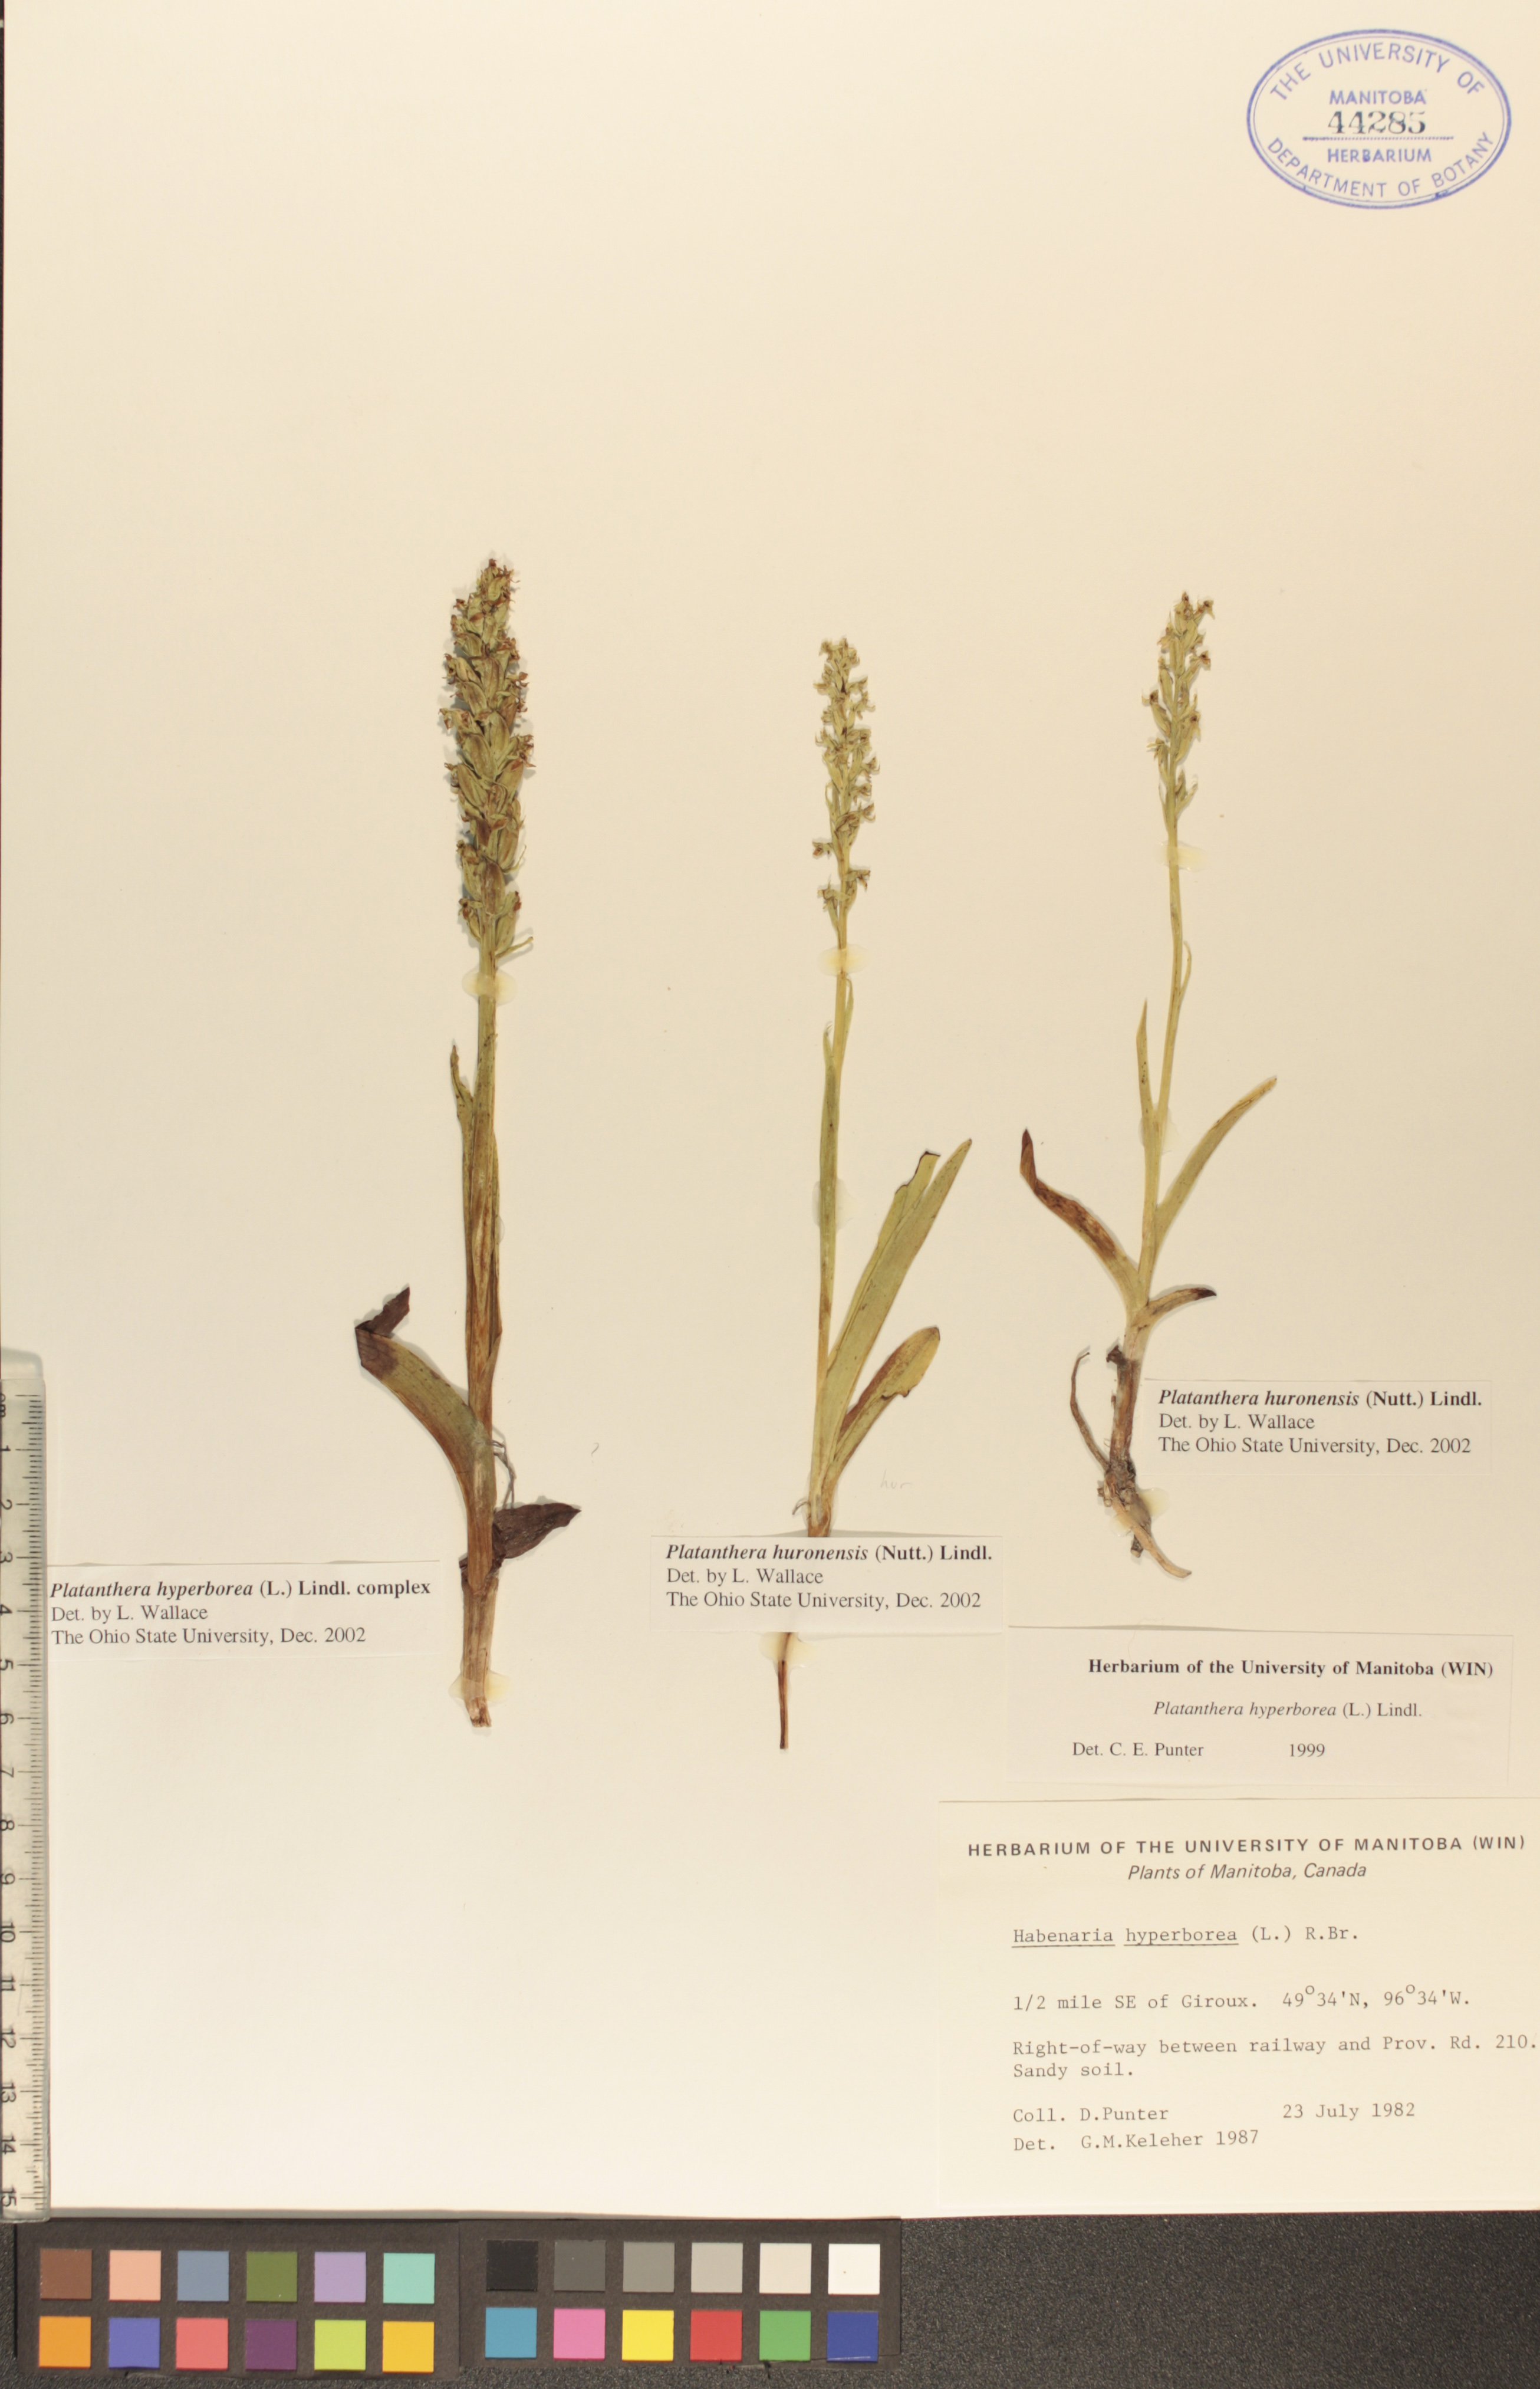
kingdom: Plantae
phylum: Tracheophyta
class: Liliopsida
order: Asparagales
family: Orchidaceae
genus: Platanthera
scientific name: Platanthera huronensis
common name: Fragrant green orchid
